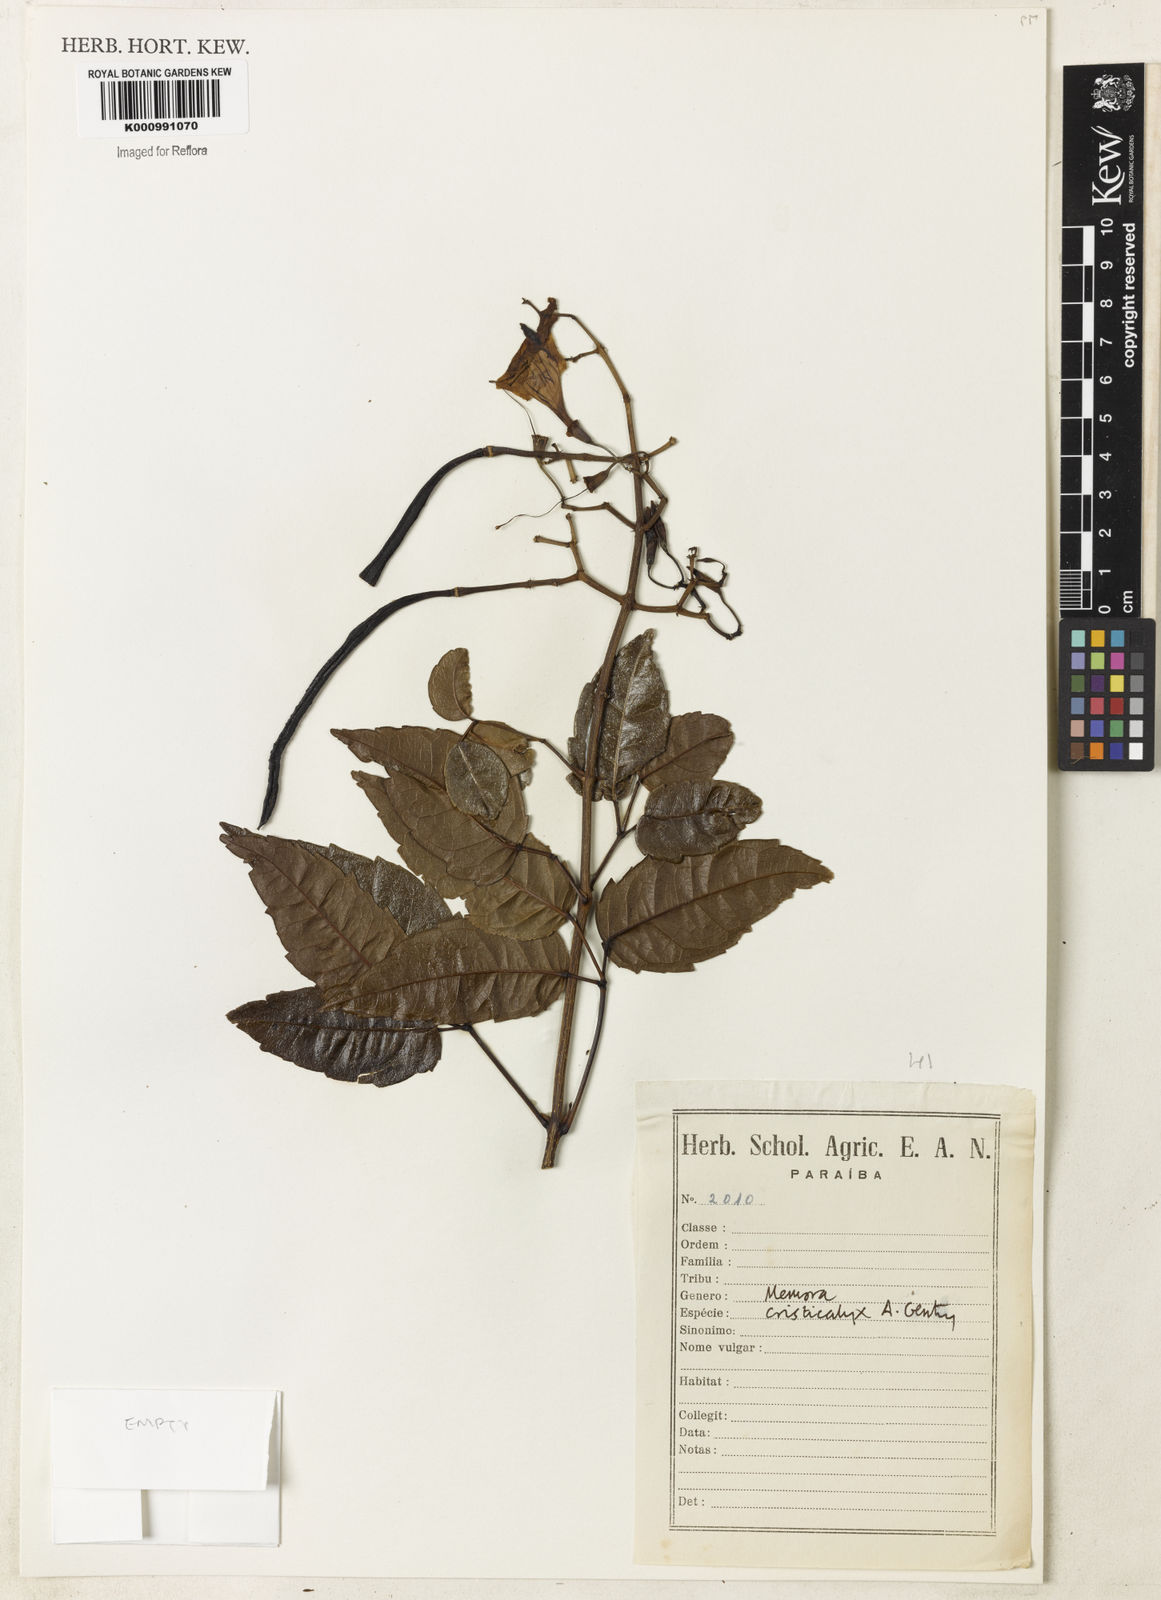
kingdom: Plantae
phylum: Tracheophyta
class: Magnoliopsida
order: Lamiales
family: Bignoniaceae
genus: Adenocalymma
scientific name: Adenocalymma cristicalyx
